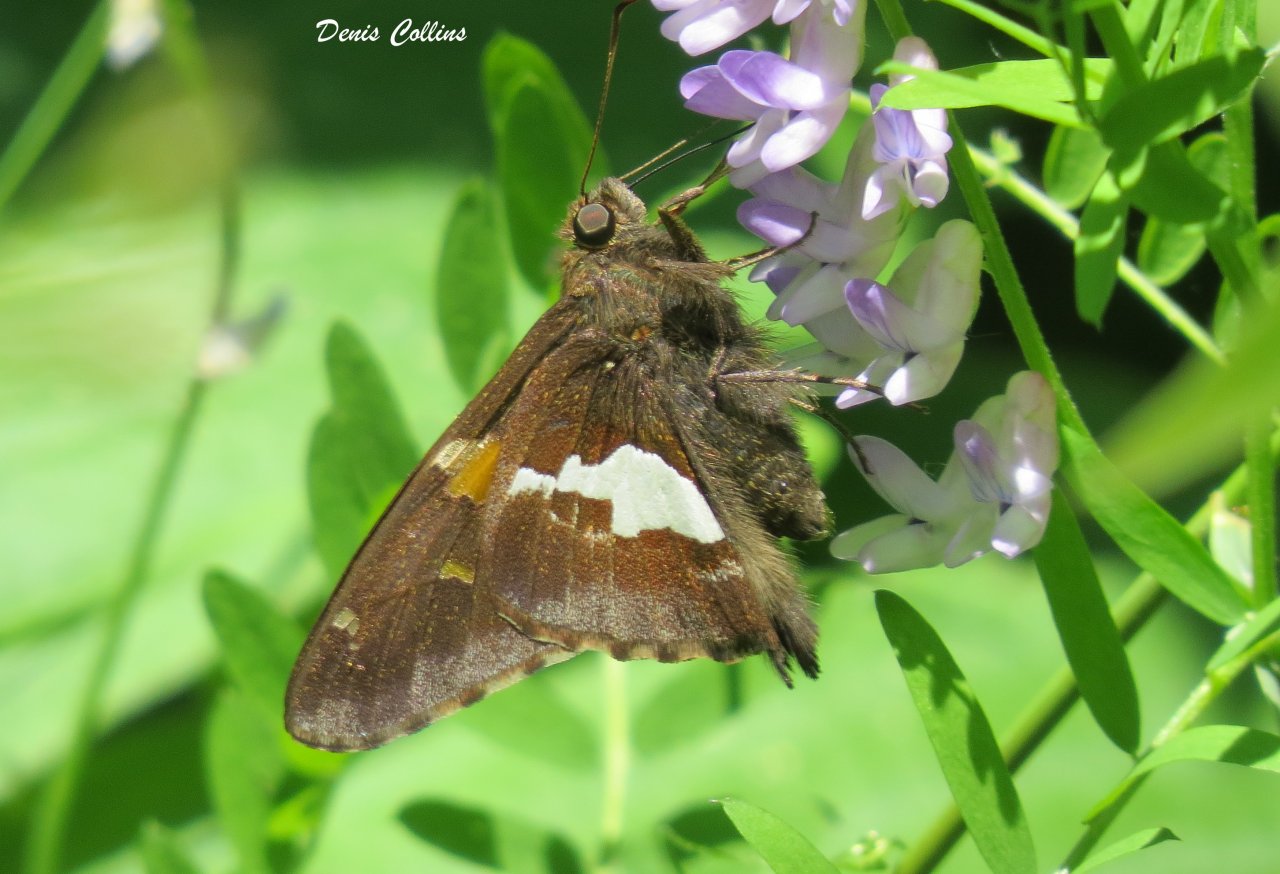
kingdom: Animalia
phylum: Arthropoda
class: Insecta
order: Lepidoptera
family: Hesperiidae
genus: Epargyreus
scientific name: Epargyreus clarus
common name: Silver-spotted Skipper
